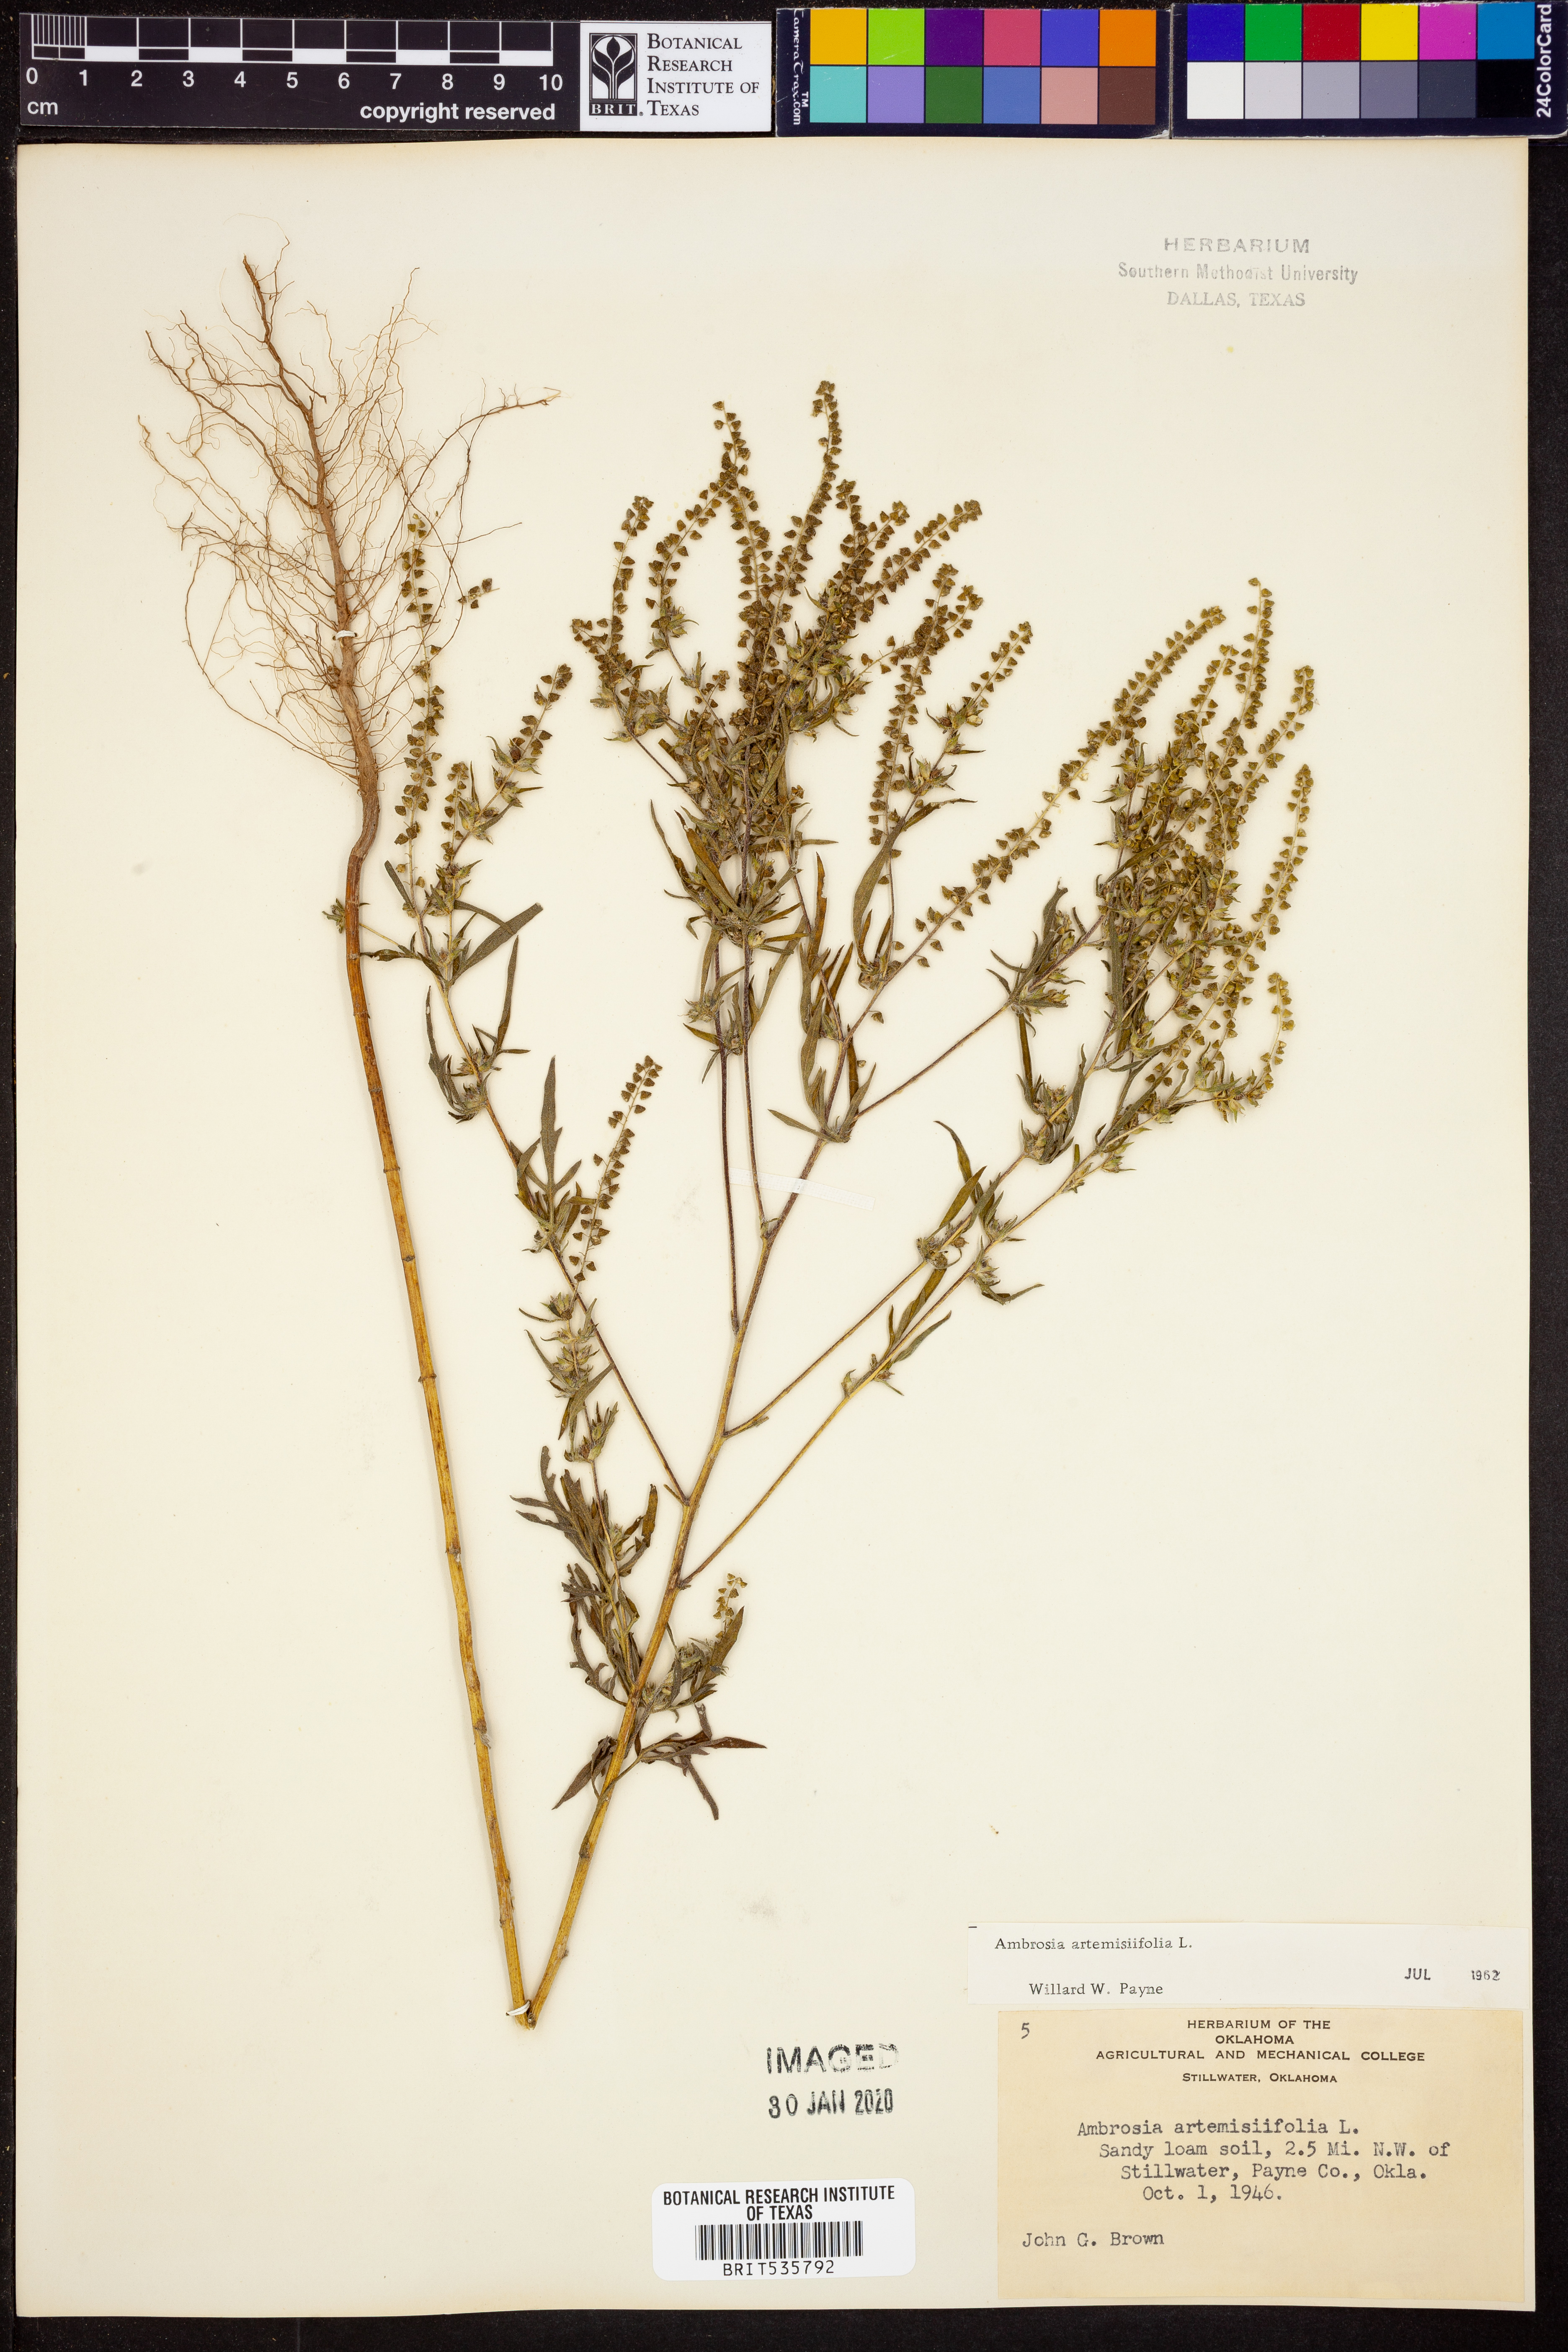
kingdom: Plantae
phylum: Tracheophyta
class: Magnoliopsida
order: Asterales
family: Asteraceae
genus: Ambrosia
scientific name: Ambrosia artemisiifolia
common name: Annual ragweed
